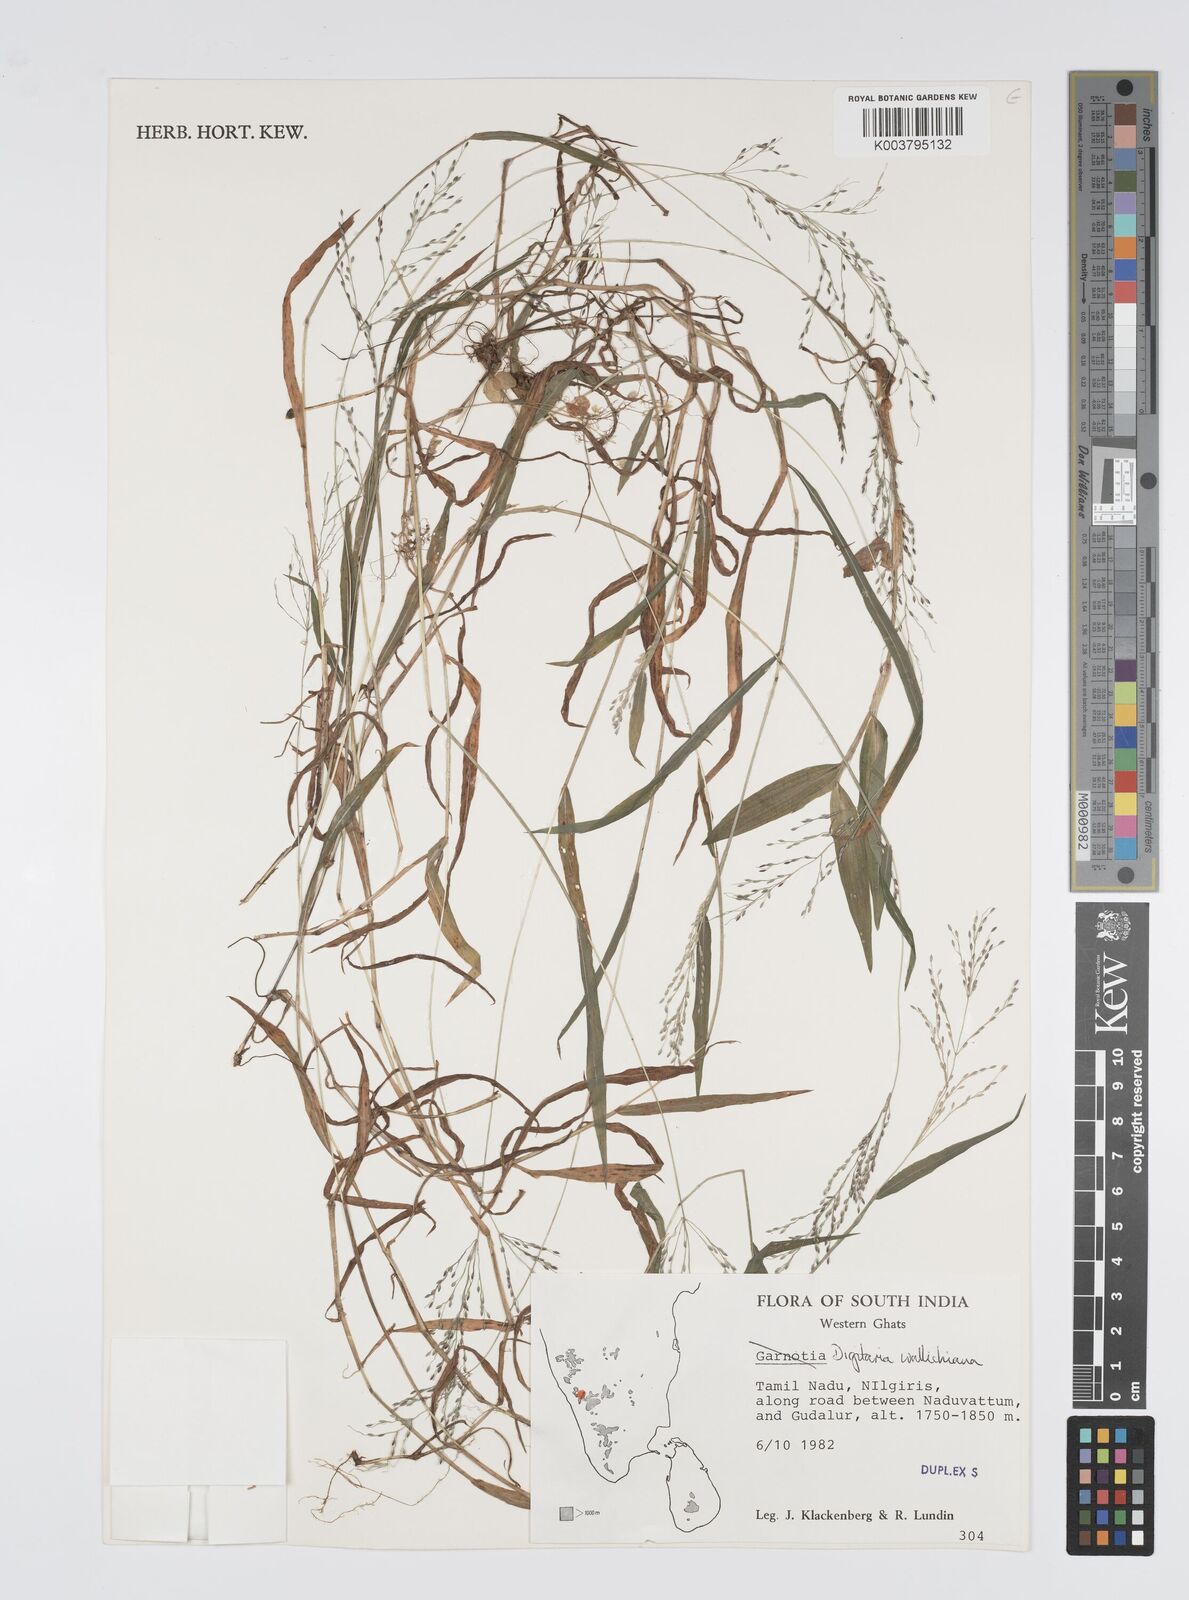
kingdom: Plantae
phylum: Tracheophyta
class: Liliopsida
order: Poales
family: Poaceae
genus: Digitaria
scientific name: Digitaria wallichiana
